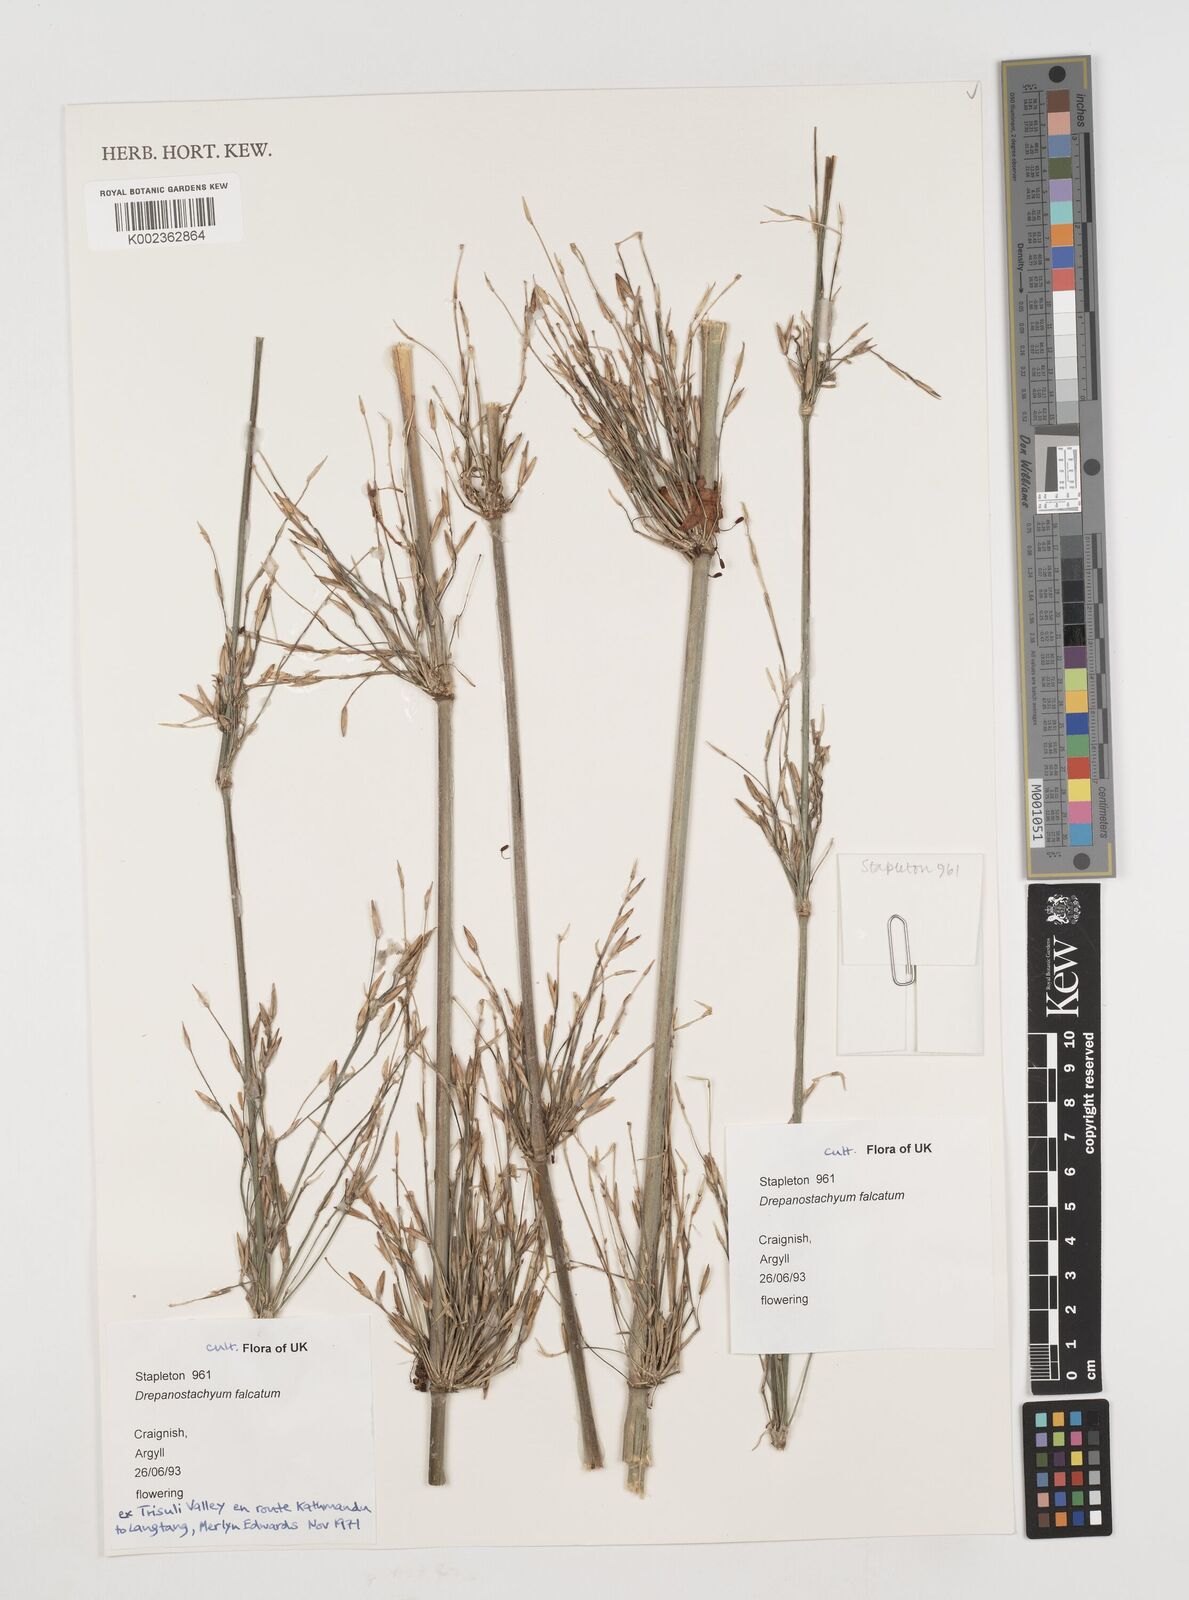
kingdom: Plantae
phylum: Tracheophyta
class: Liliopsida
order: Poales
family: Poaceae
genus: Drepanostachyum
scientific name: Drepanostachyum falcatum
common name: Himalayan bamboo
